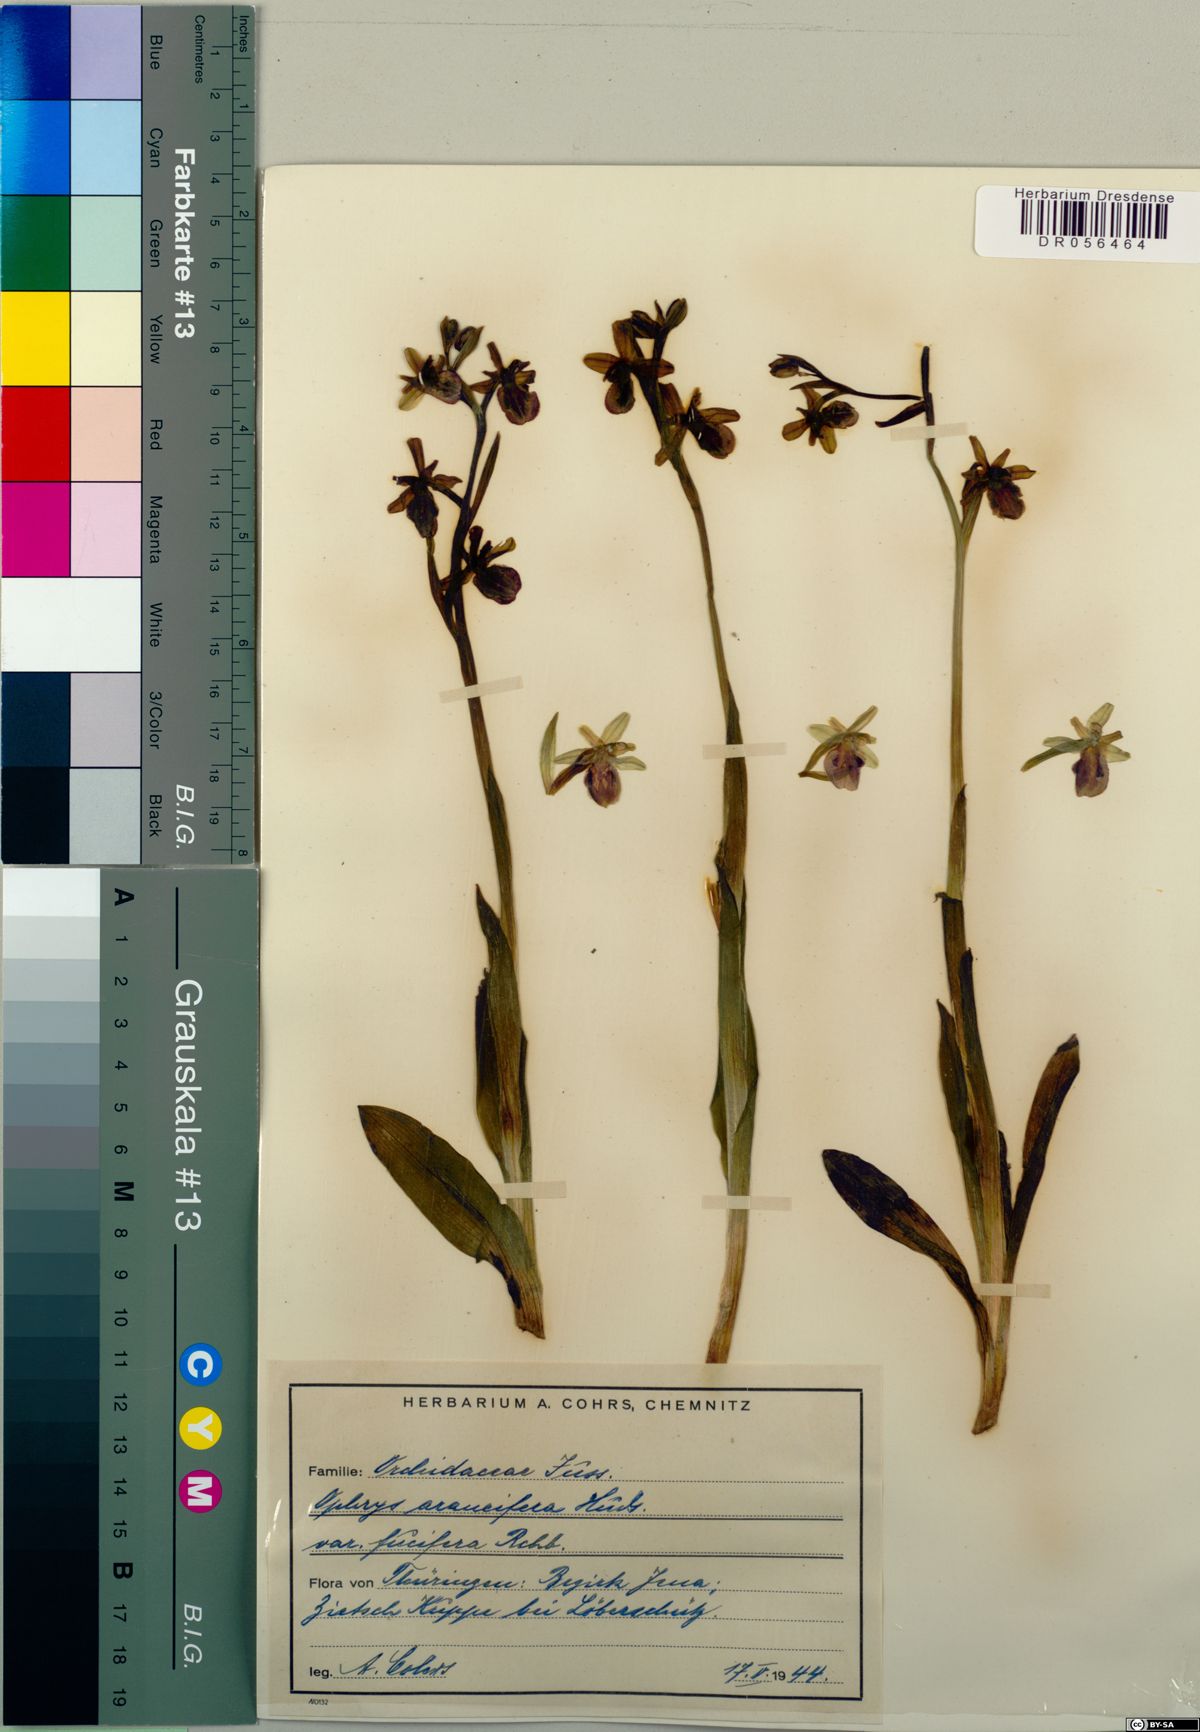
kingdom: Plantae
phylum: Tracheophyta
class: Liliopsida
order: Asparagales
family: Orchidaceae
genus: Ophrys
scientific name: Ophrys sphegodes
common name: Early spider-orchid
